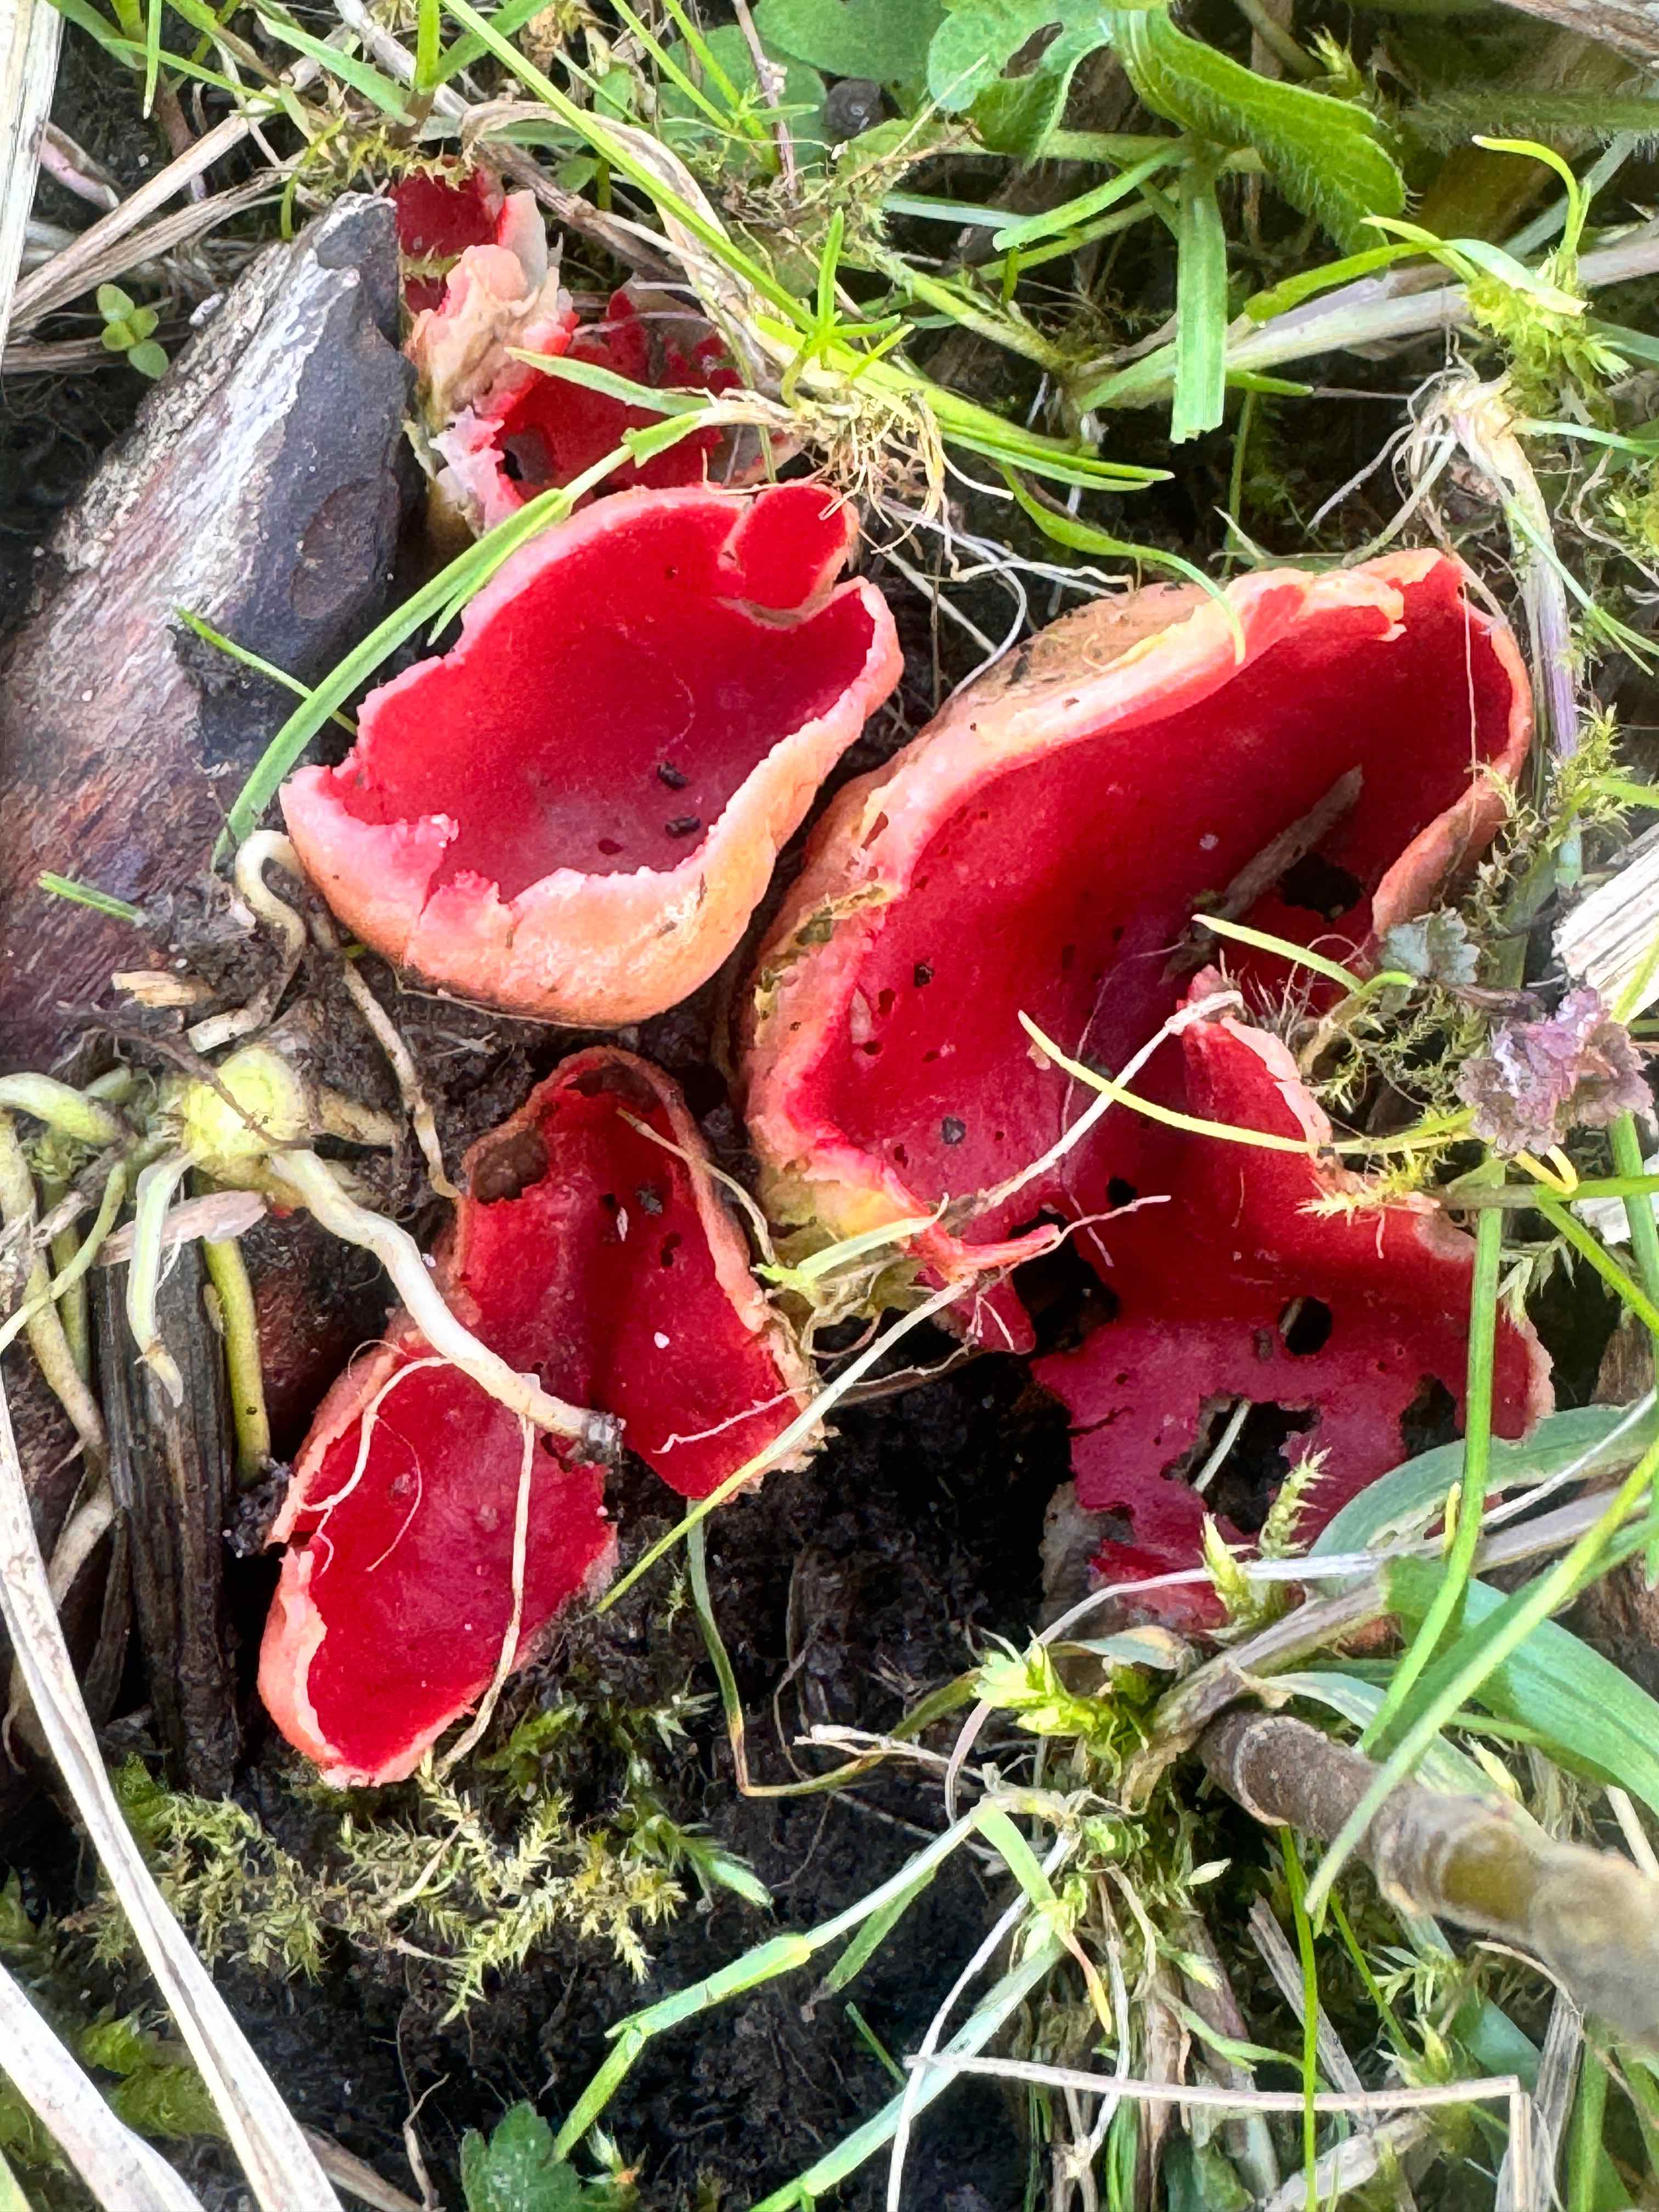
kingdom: Fungi
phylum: Ascomycota
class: Pezizomycetes
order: Pezizales
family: Sarcoscyphaceae
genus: Sarcoscypha
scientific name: Sarcoscypha austriaca
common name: krølhåret pragtbæger
